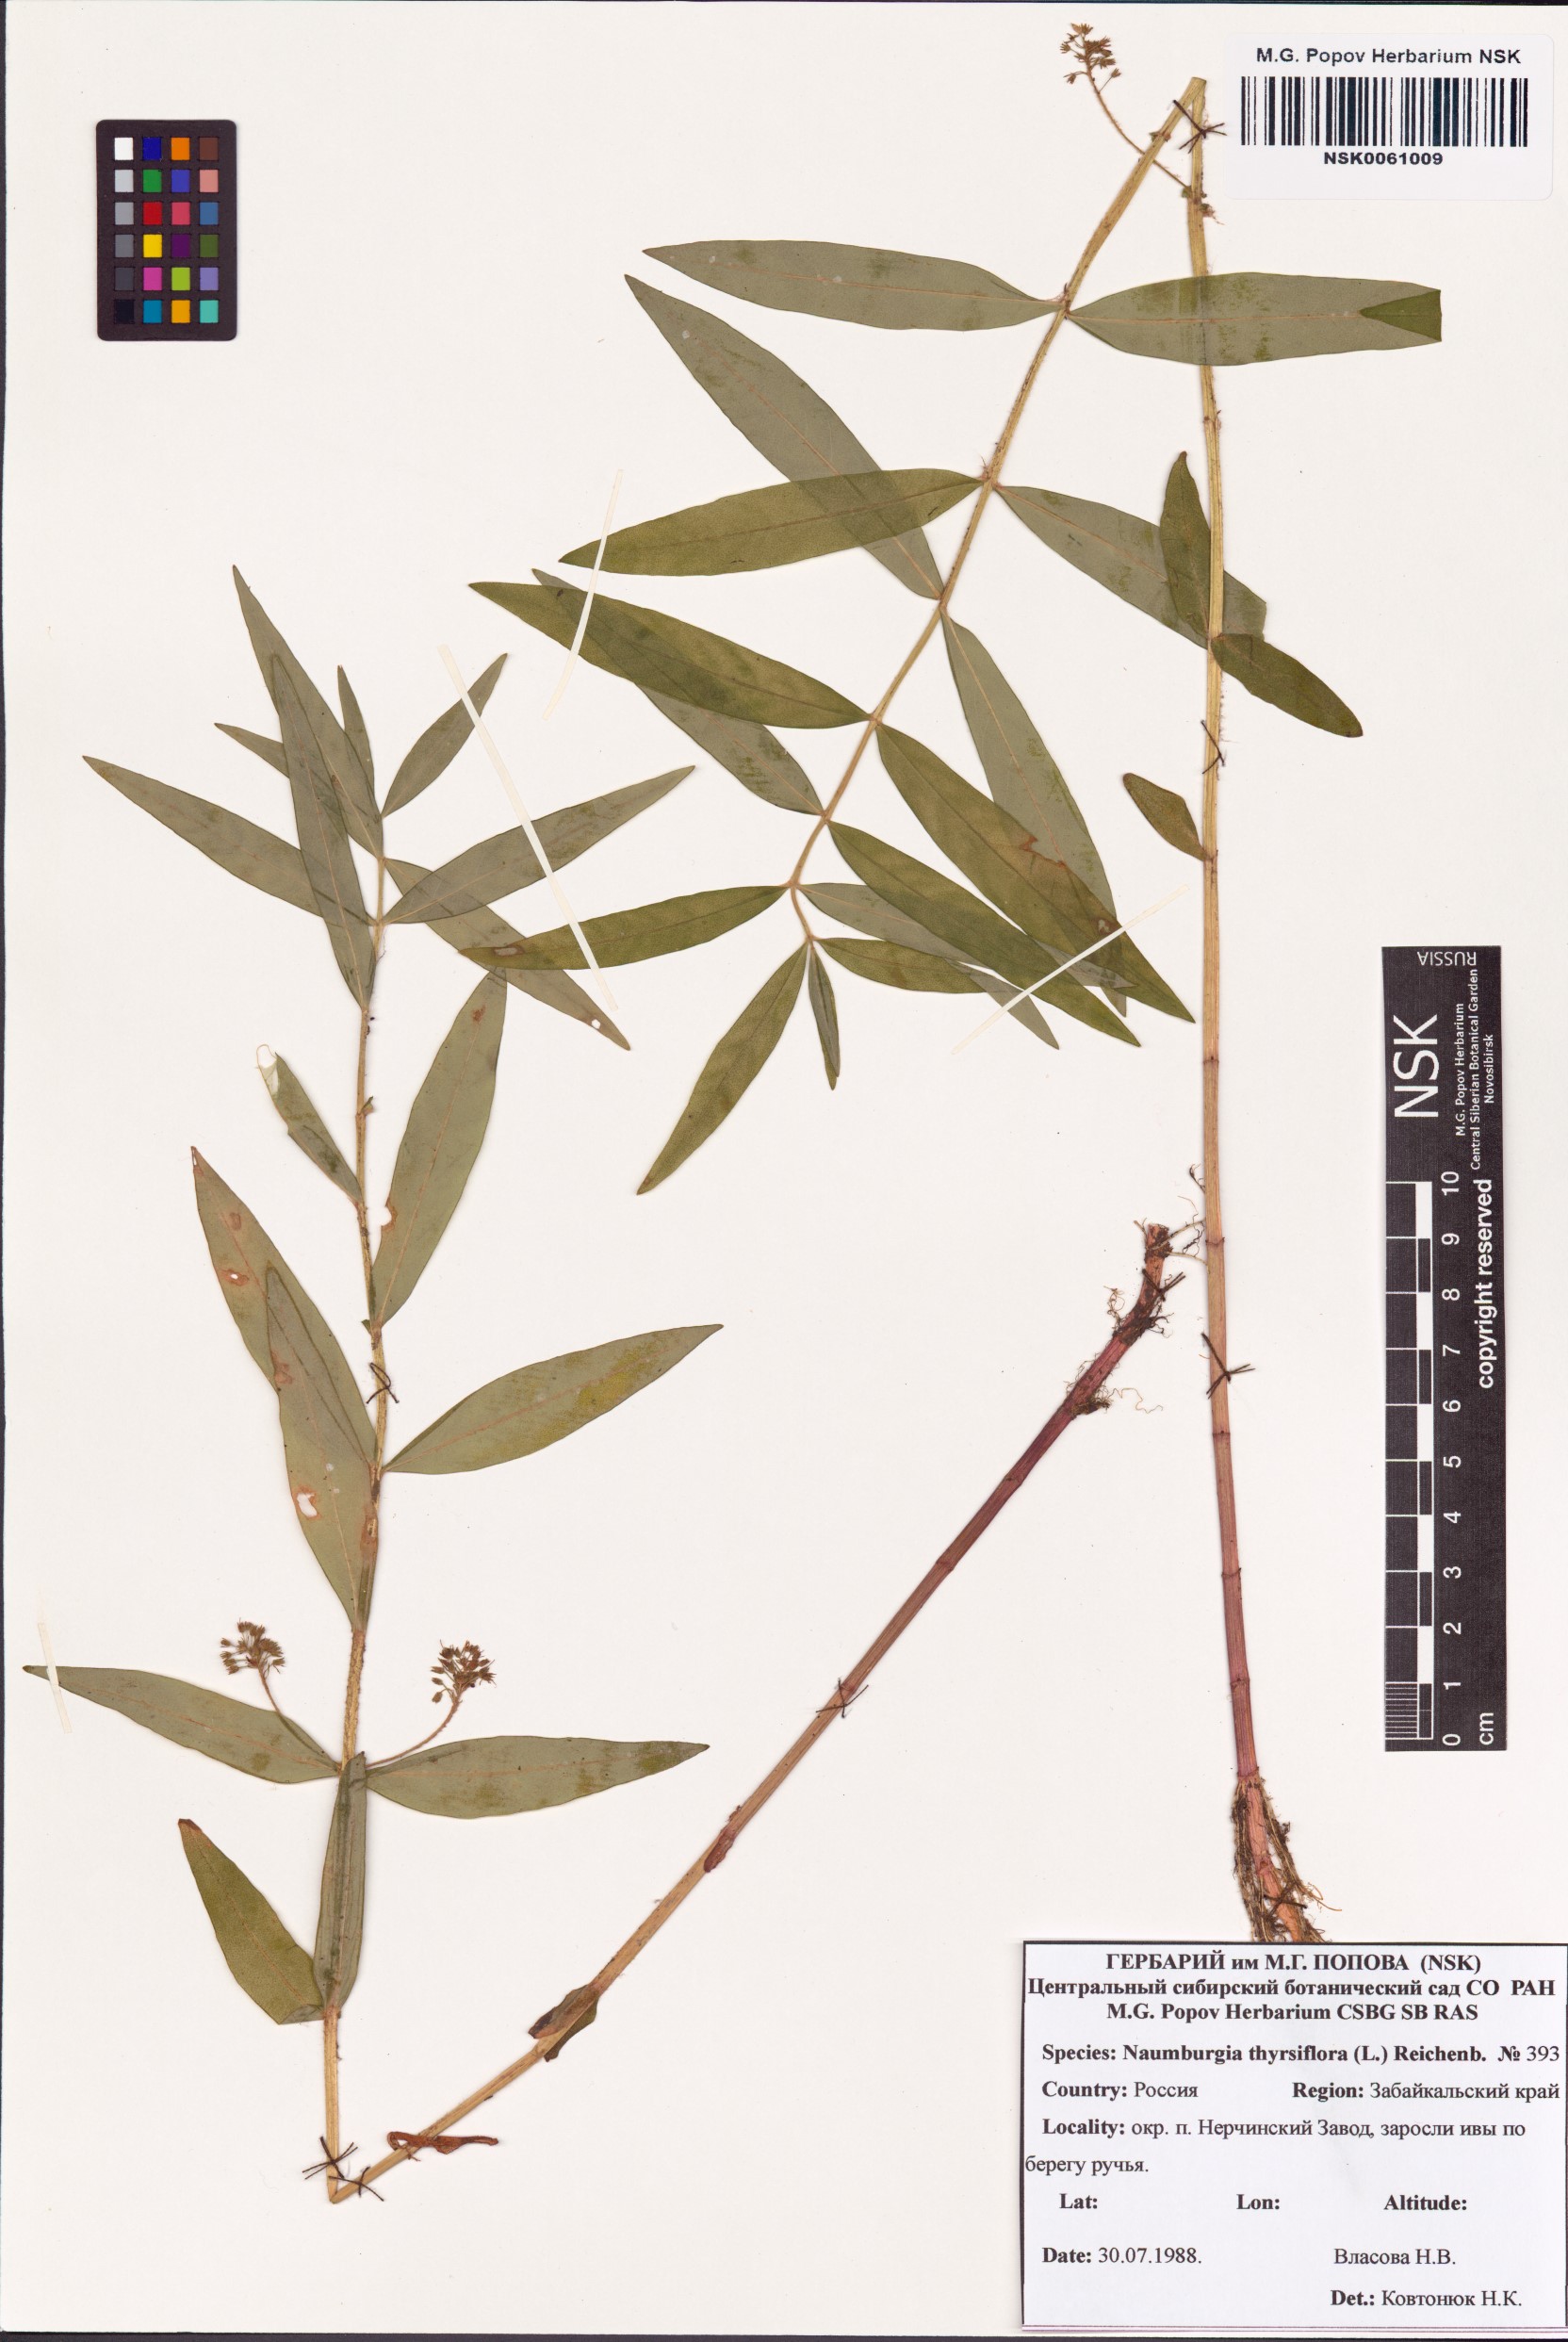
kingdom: Plantae
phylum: Tracheophyta
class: Magnoliopsida
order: Ericales
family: Primulaceae
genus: Lysimachia
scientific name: Lysimachia thyrsiflora
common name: Tufted loosestrife
